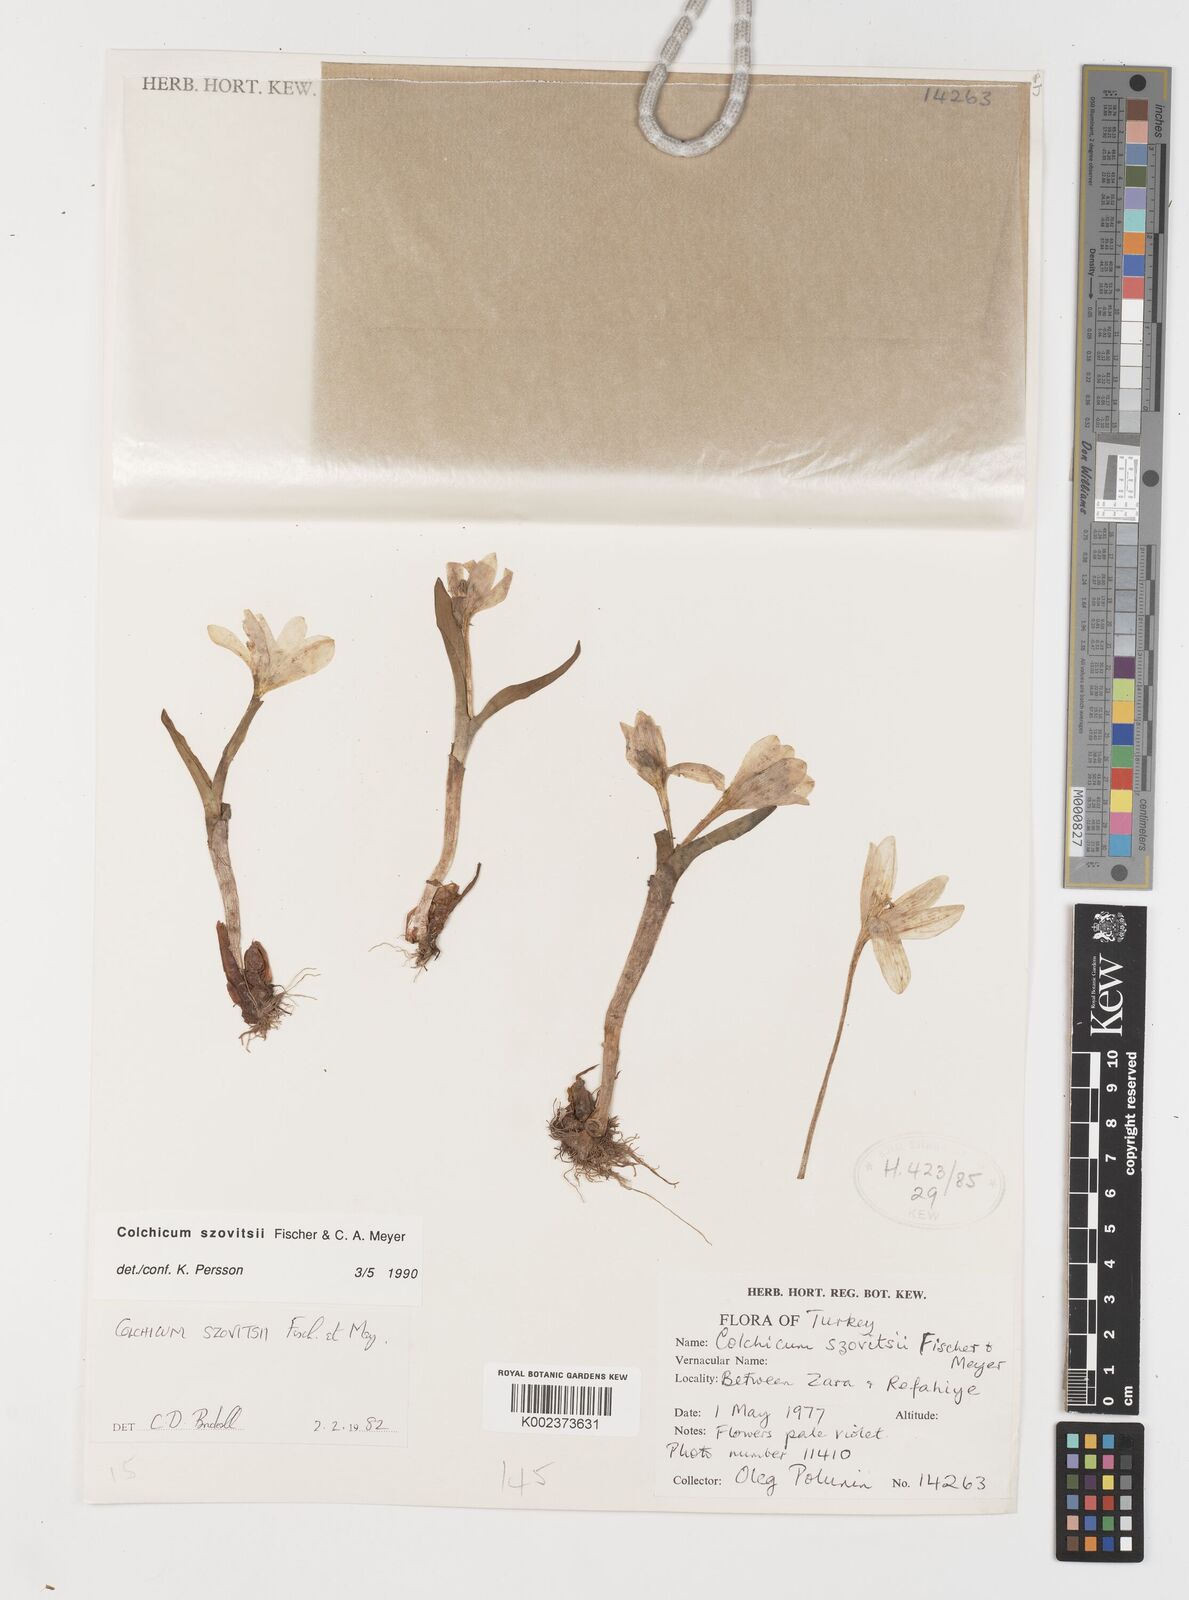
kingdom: Plantae
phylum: Tracheophyta
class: Liliopsida
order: Liliales
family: Colchicaceae
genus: Colchicum
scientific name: Colchicum szovitsii
